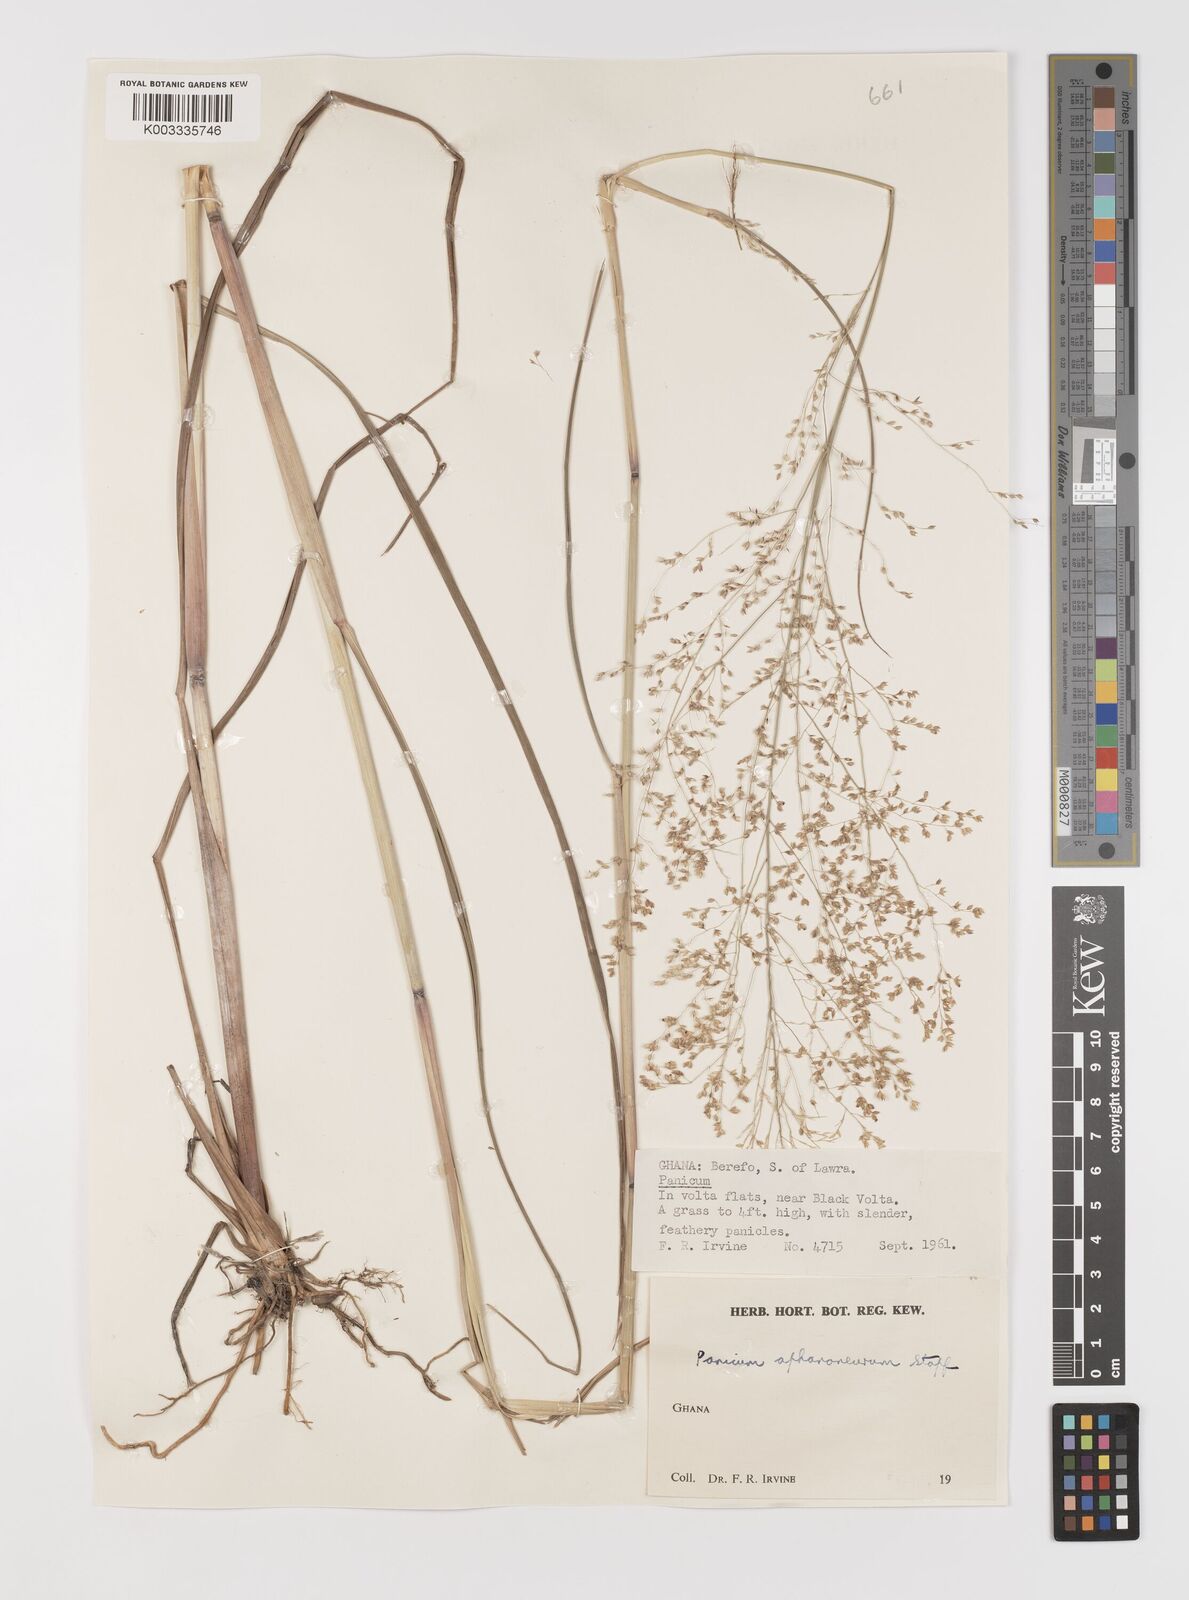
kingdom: Plantae
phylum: Tracheophyta
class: Liliopsida
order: Poales
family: Poaceae
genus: Panicum
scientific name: Panicum fluviicola
